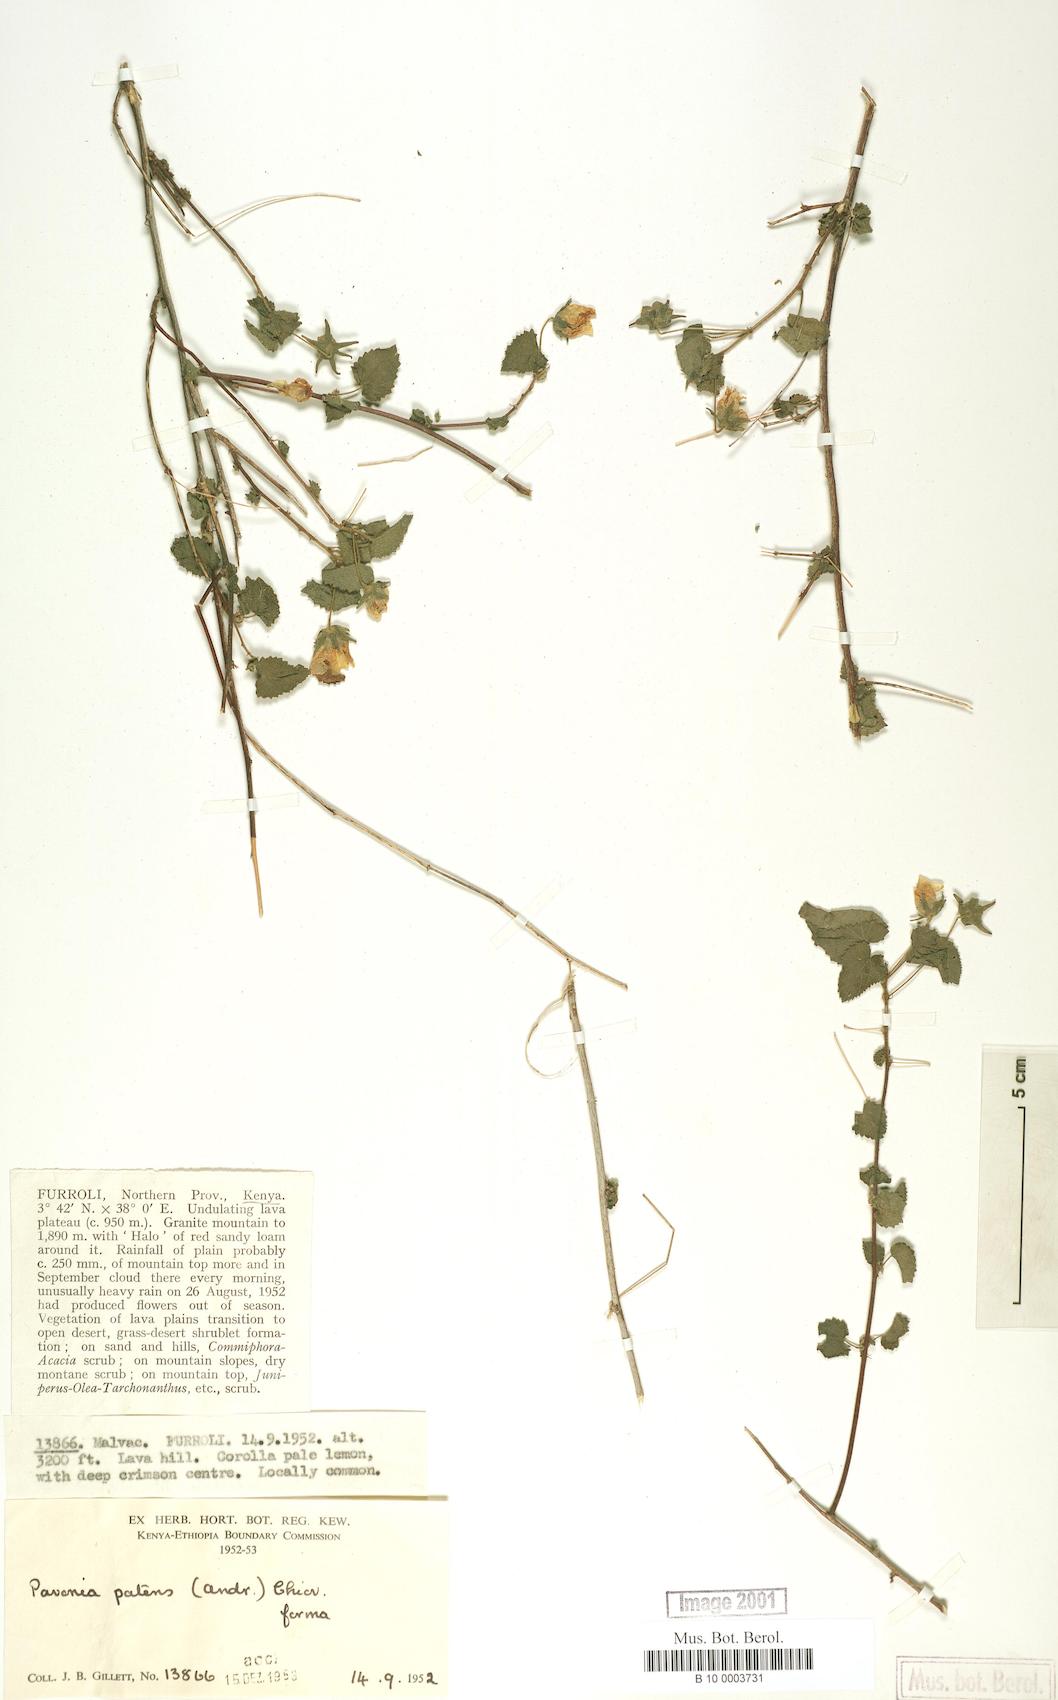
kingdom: Plantae
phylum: Tracheophyta
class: Magnoliopsida
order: Malvales
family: Malvaceae
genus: Abutilon
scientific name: Abutilon mauritianum
